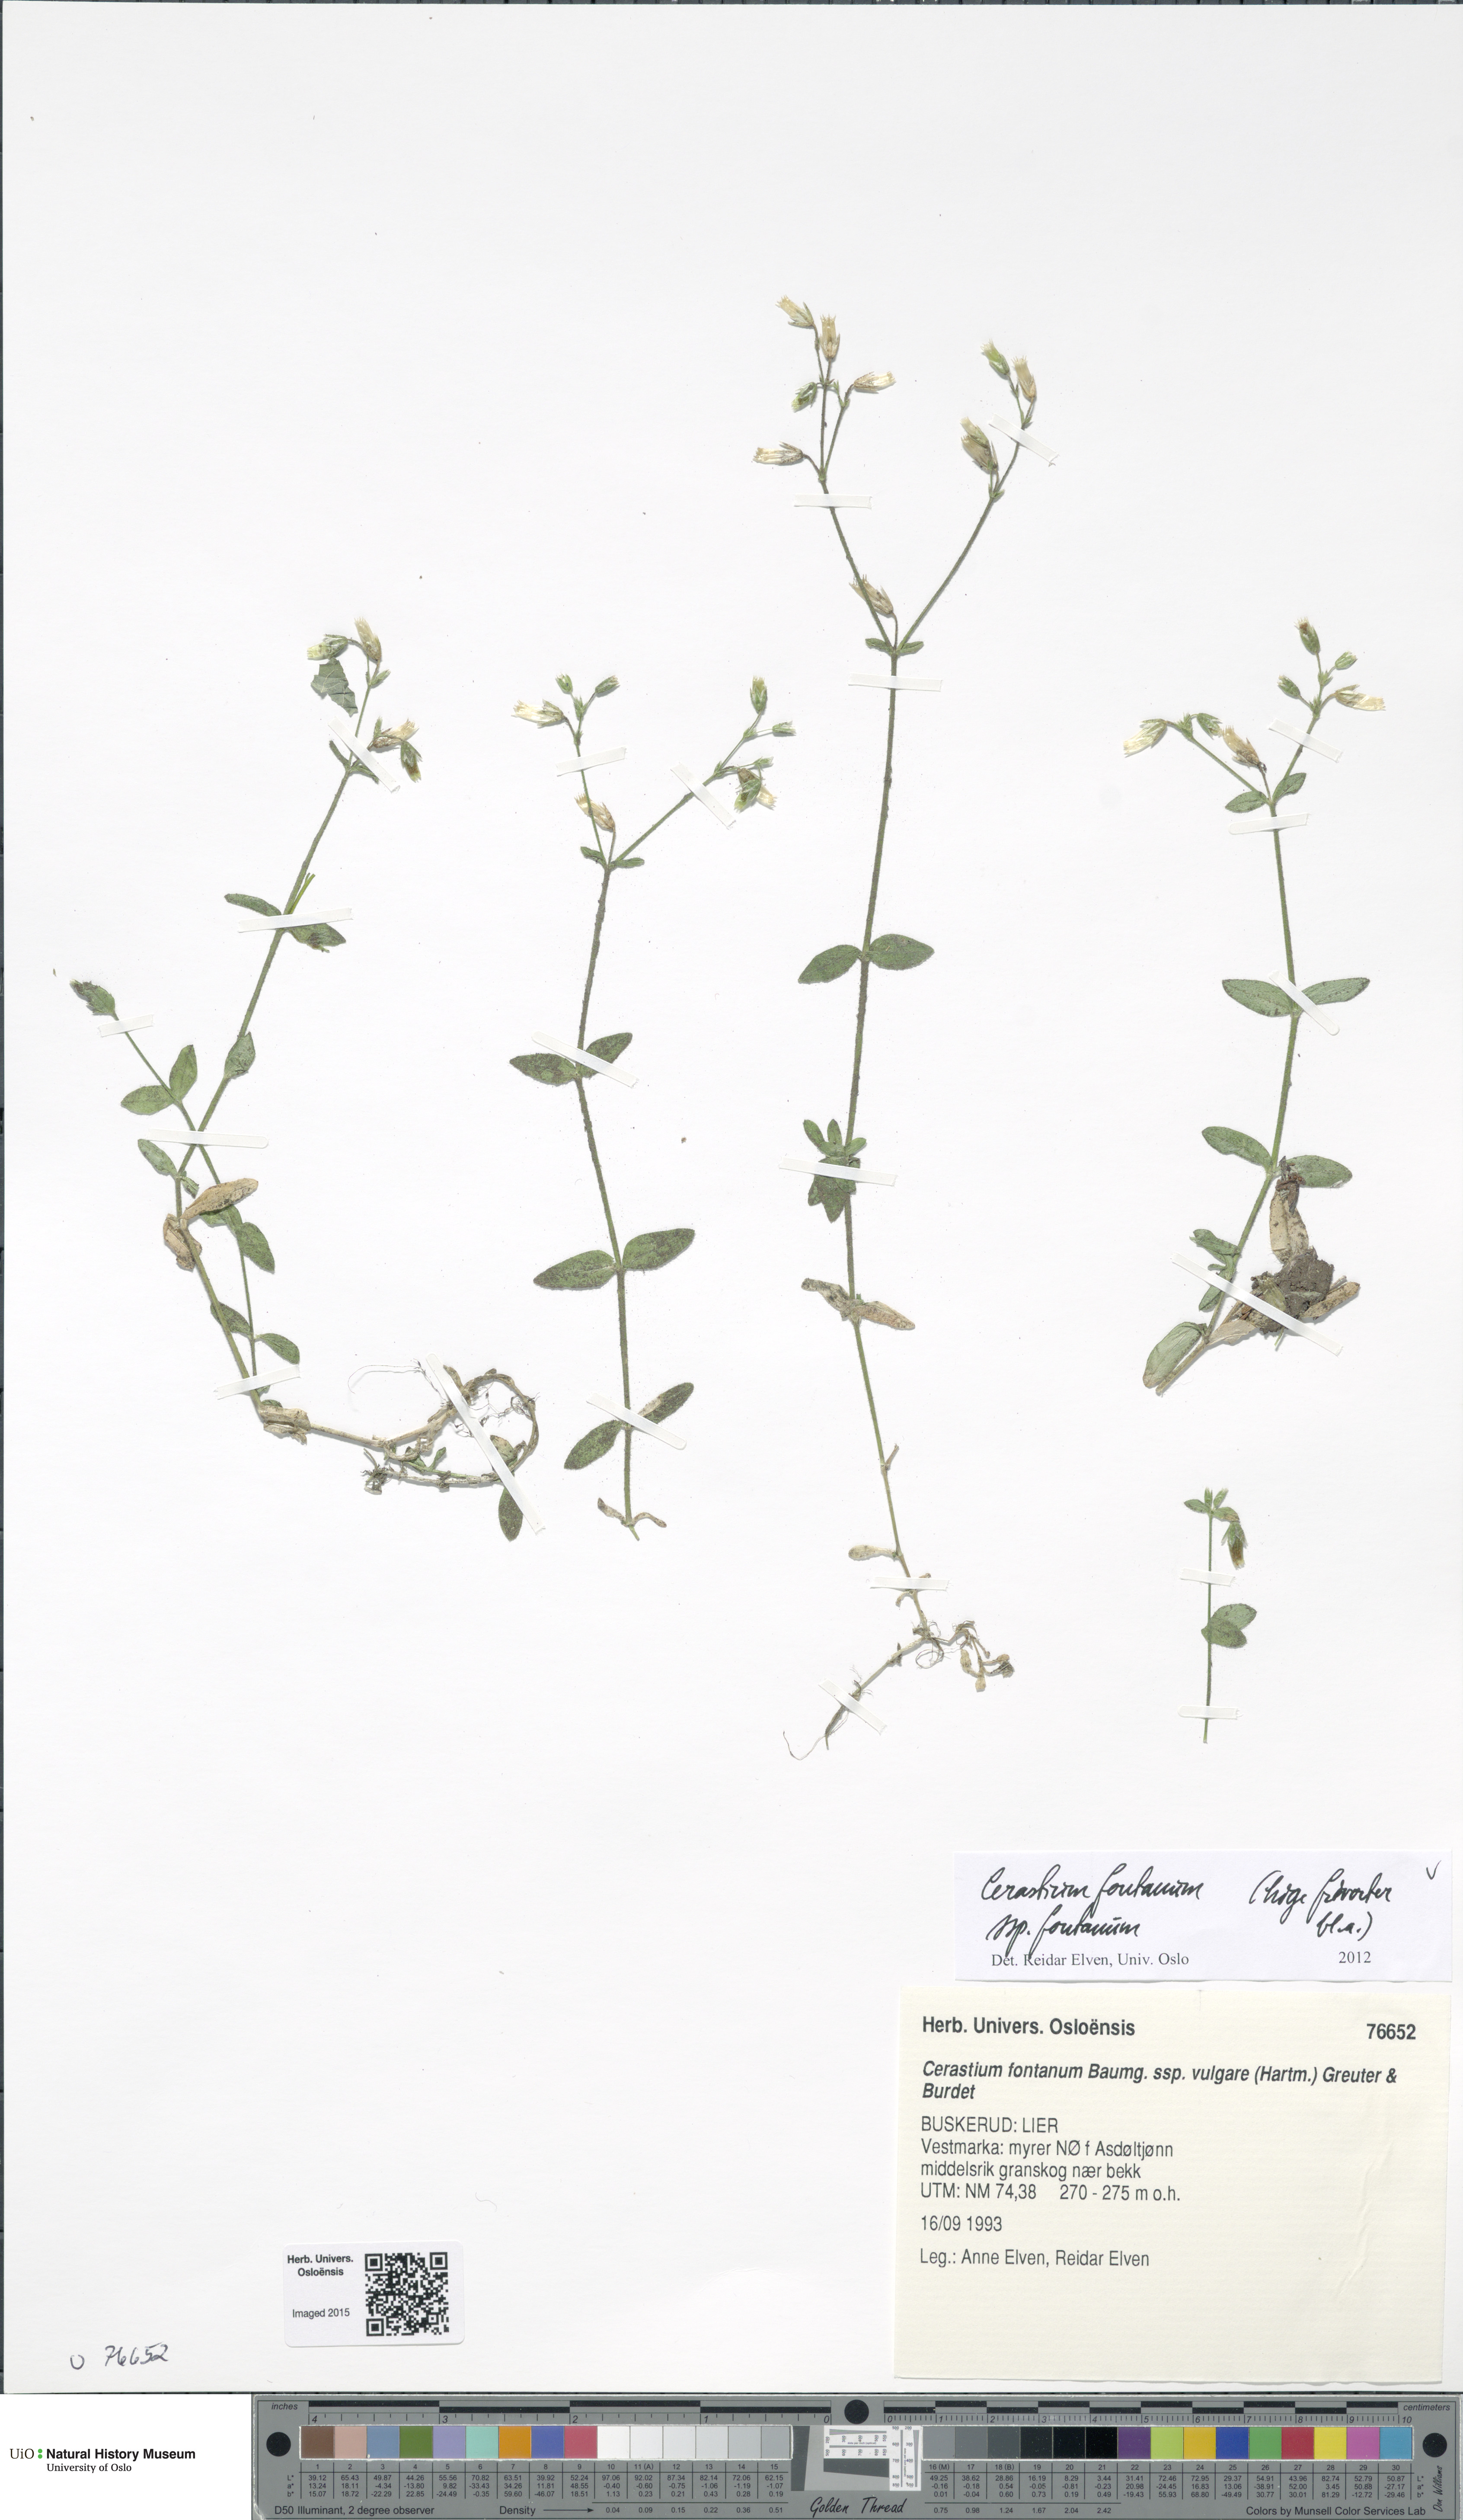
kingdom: Plantae
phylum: Tracheophyta
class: Magnoliopsida
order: Caryophyllales
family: Caryophyllaceae
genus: Cerastium
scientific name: Cerastium fontanum
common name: Common mouse-ear
